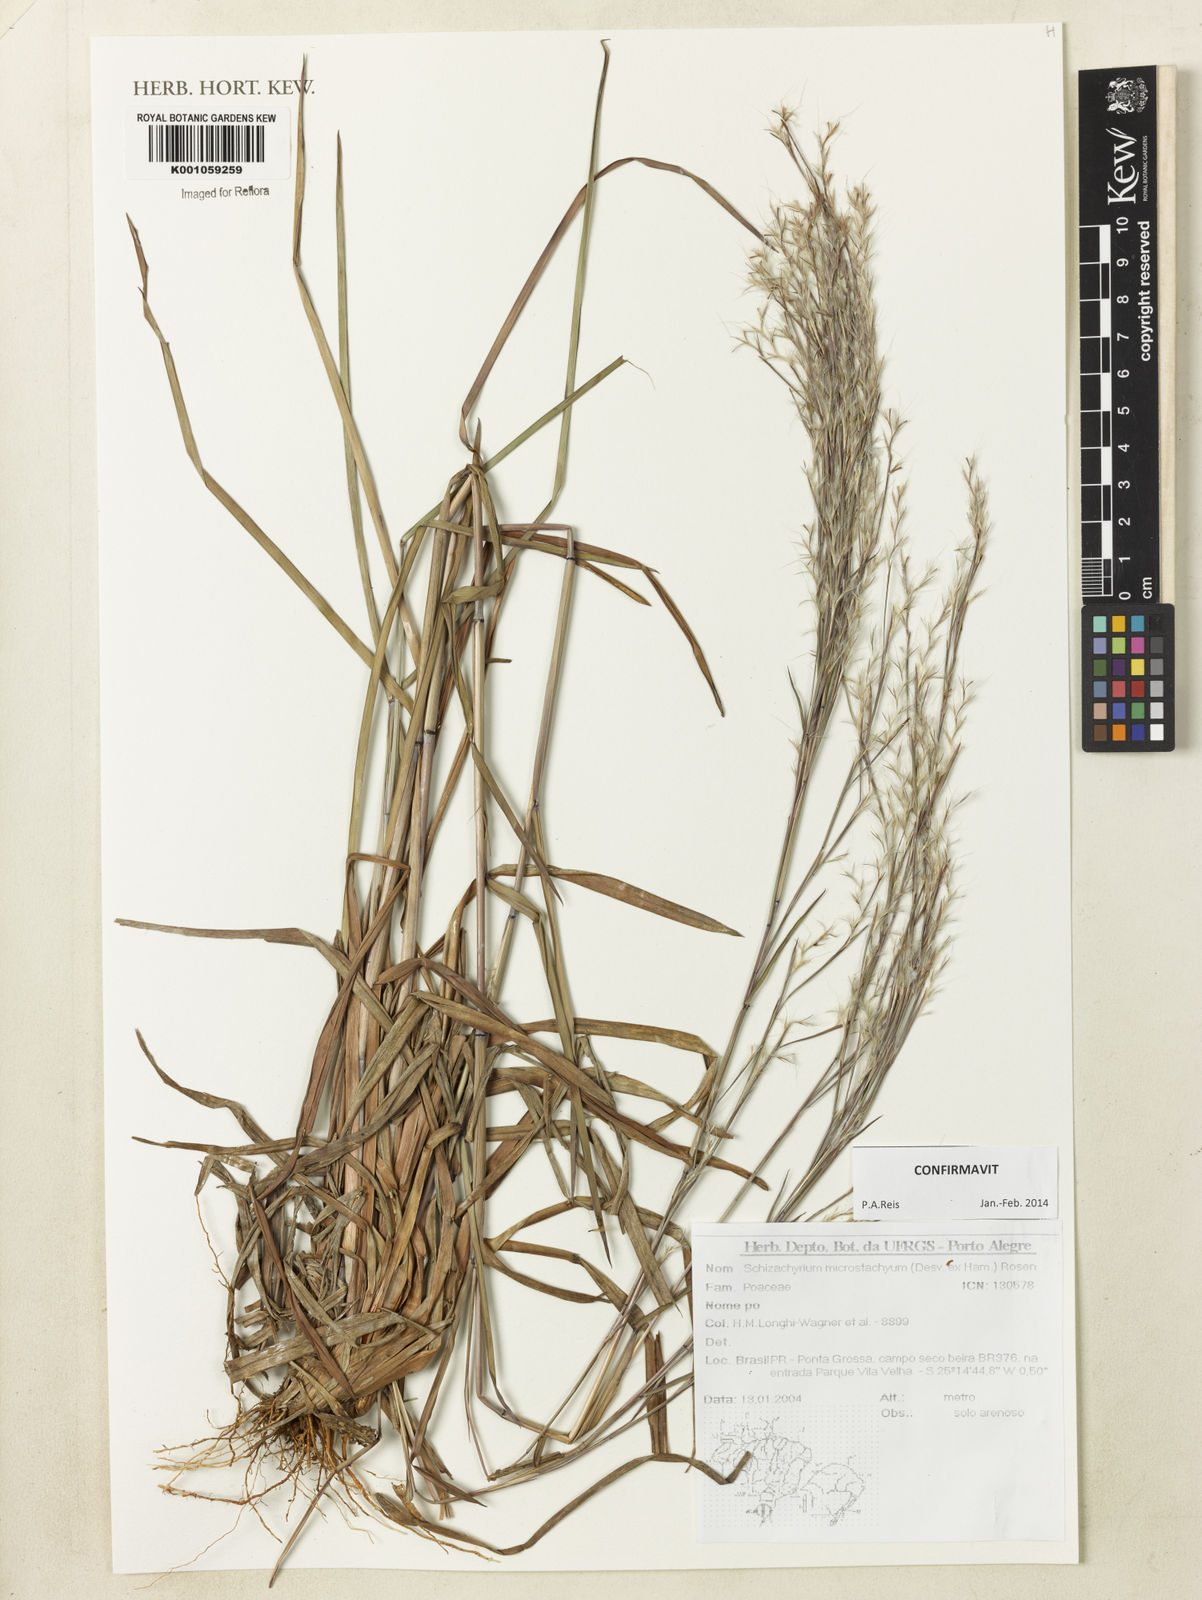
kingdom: Plantae
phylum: Tracheophyta
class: Liliopsida
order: Poales
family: Poaceae
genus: Schizachyrium
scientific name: Schizachyrium
